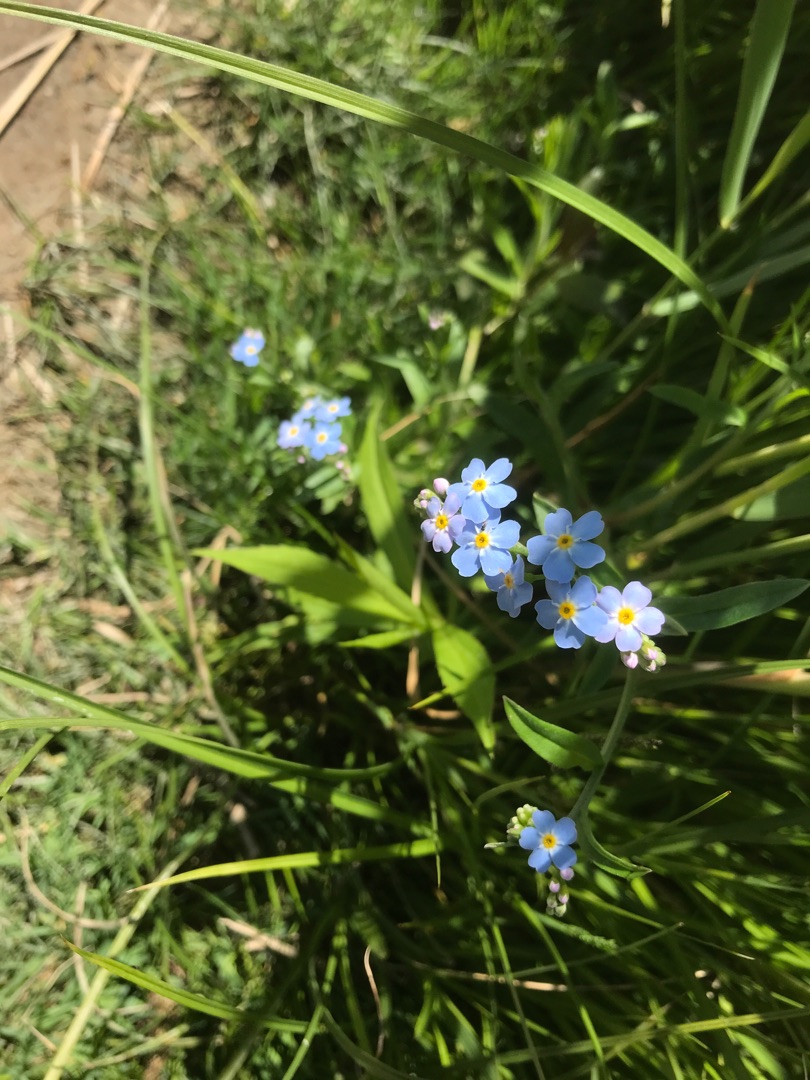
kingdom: Plantae
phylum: Tracheophyta
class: Magnoliopsida
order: Boraginales
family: Boraginaceae
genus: Myosotis
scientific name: Myosotis scorpioides
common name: Eng-forglemmigej
